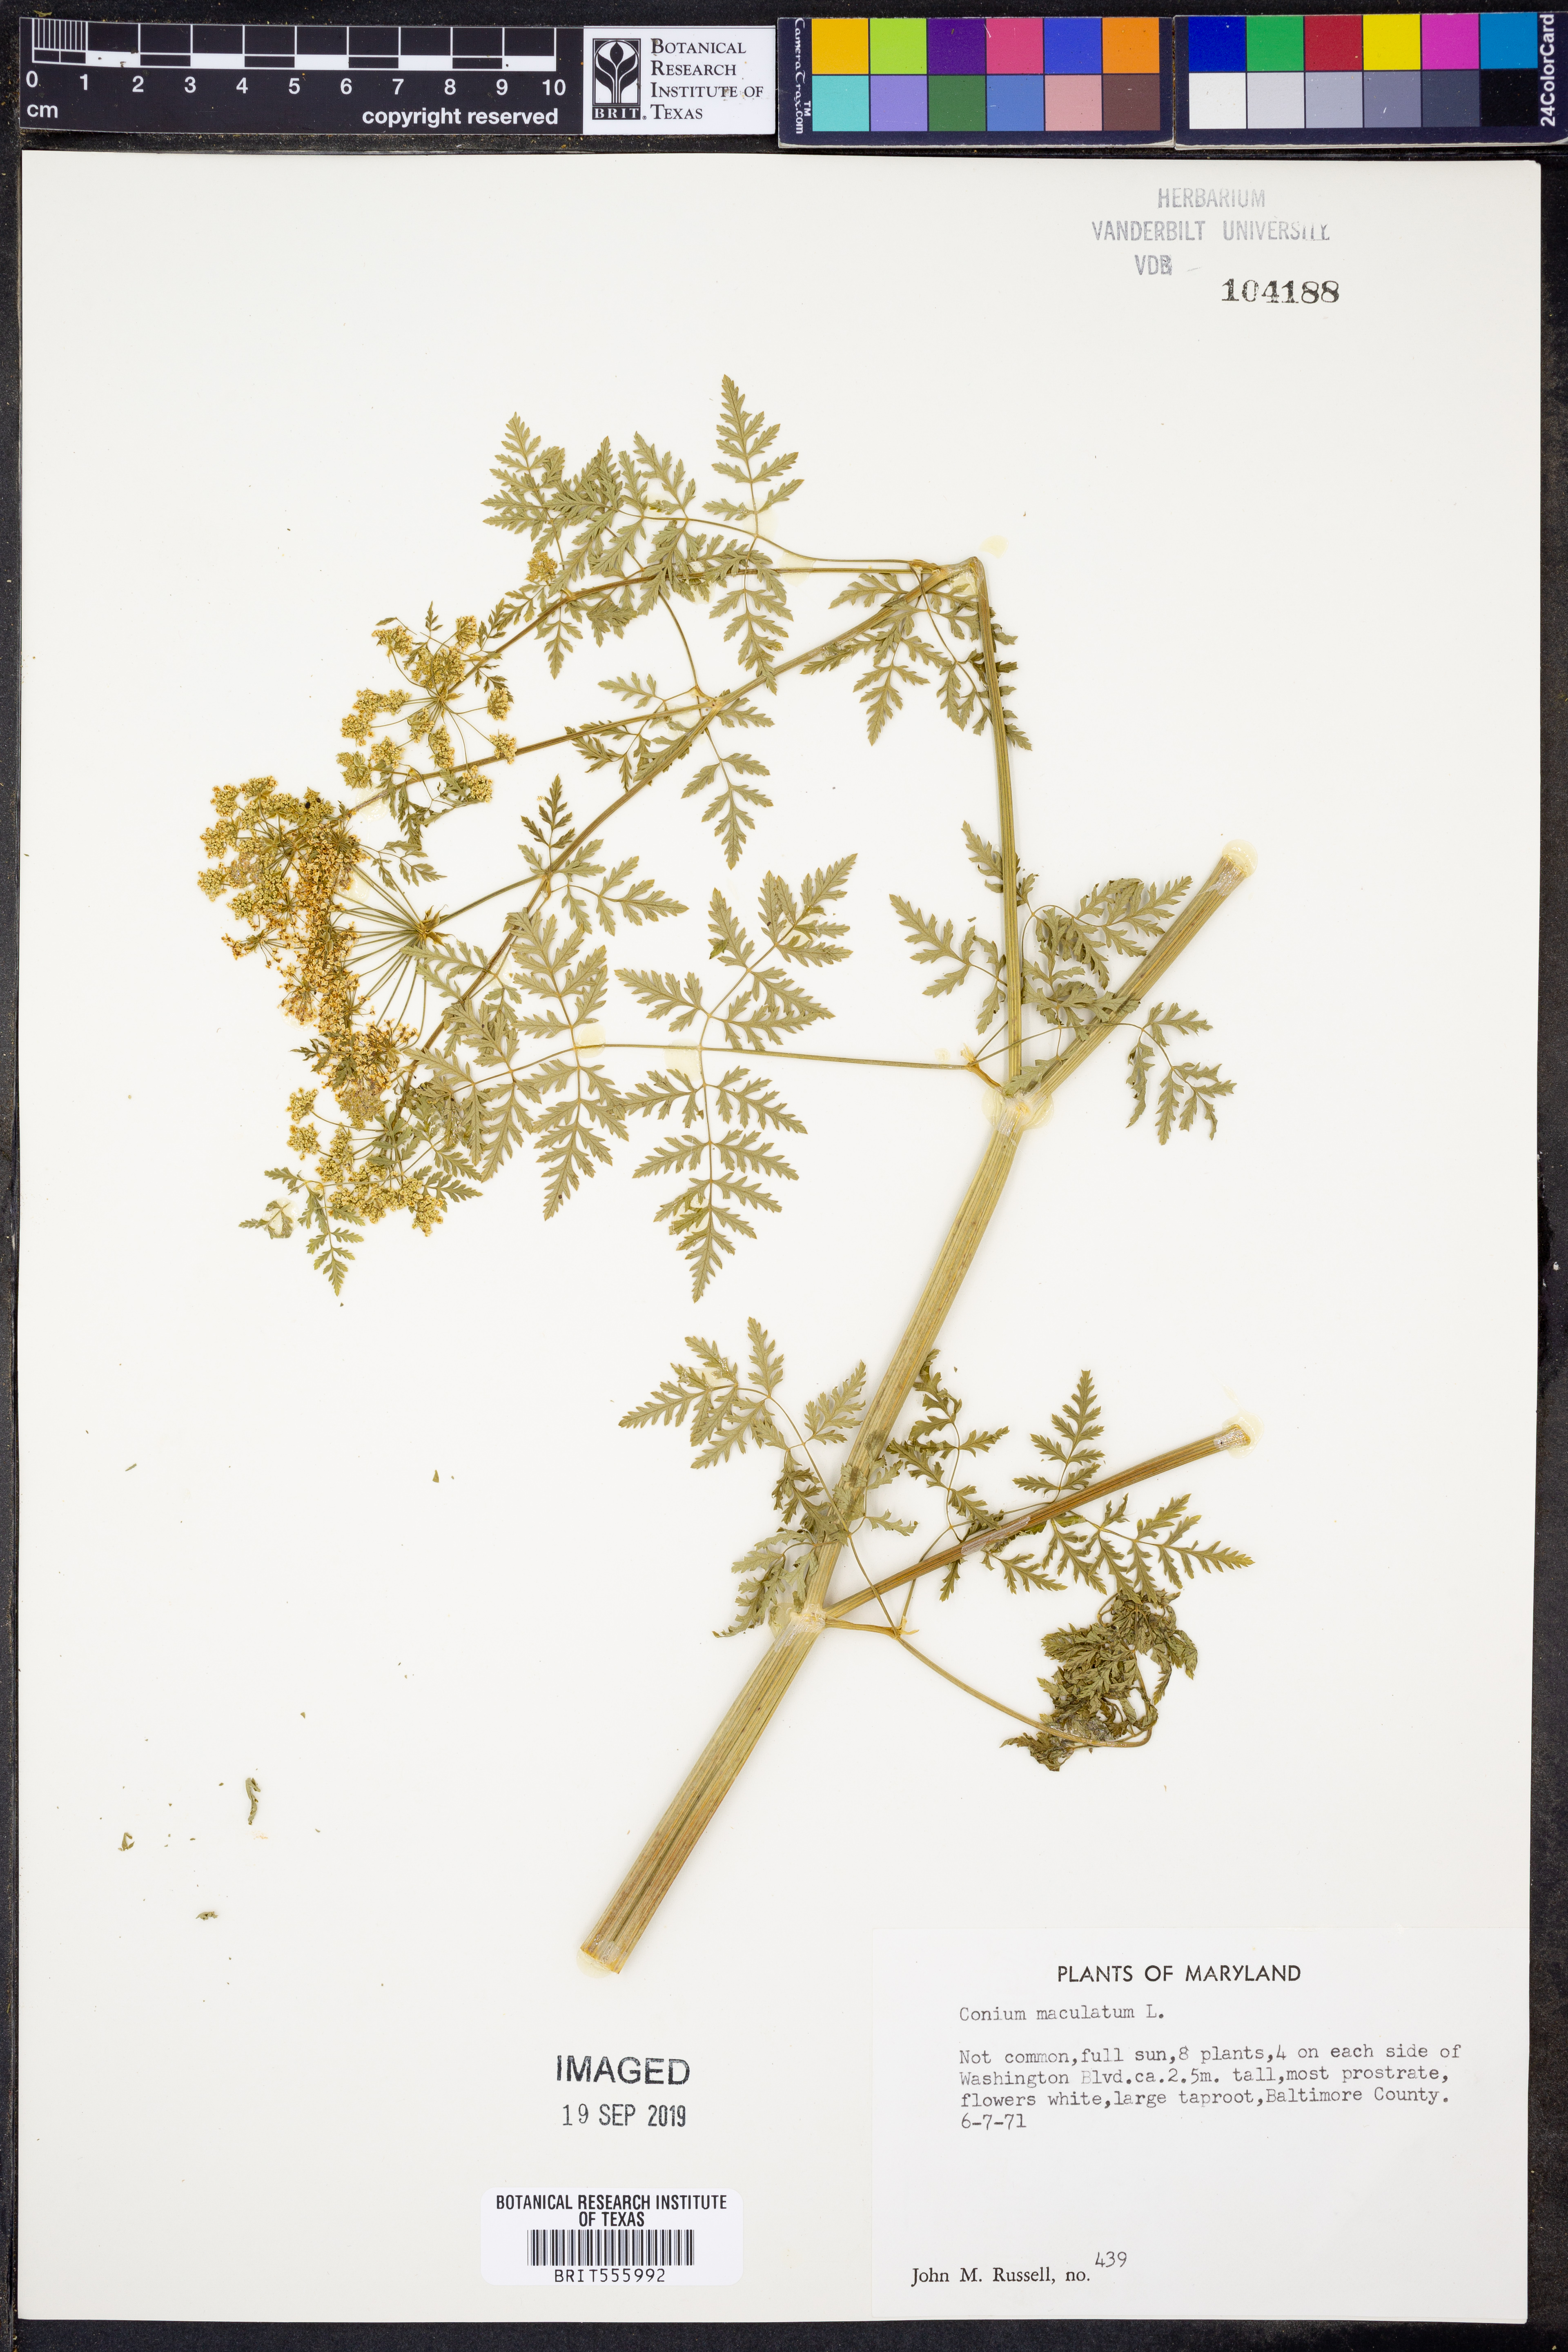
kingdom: Plantae
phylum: Tracheophyta
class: Magnoliopsida
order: Apiales
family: Apiaceae
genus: Conium
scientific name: Conium maculatum
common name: Hemlock
